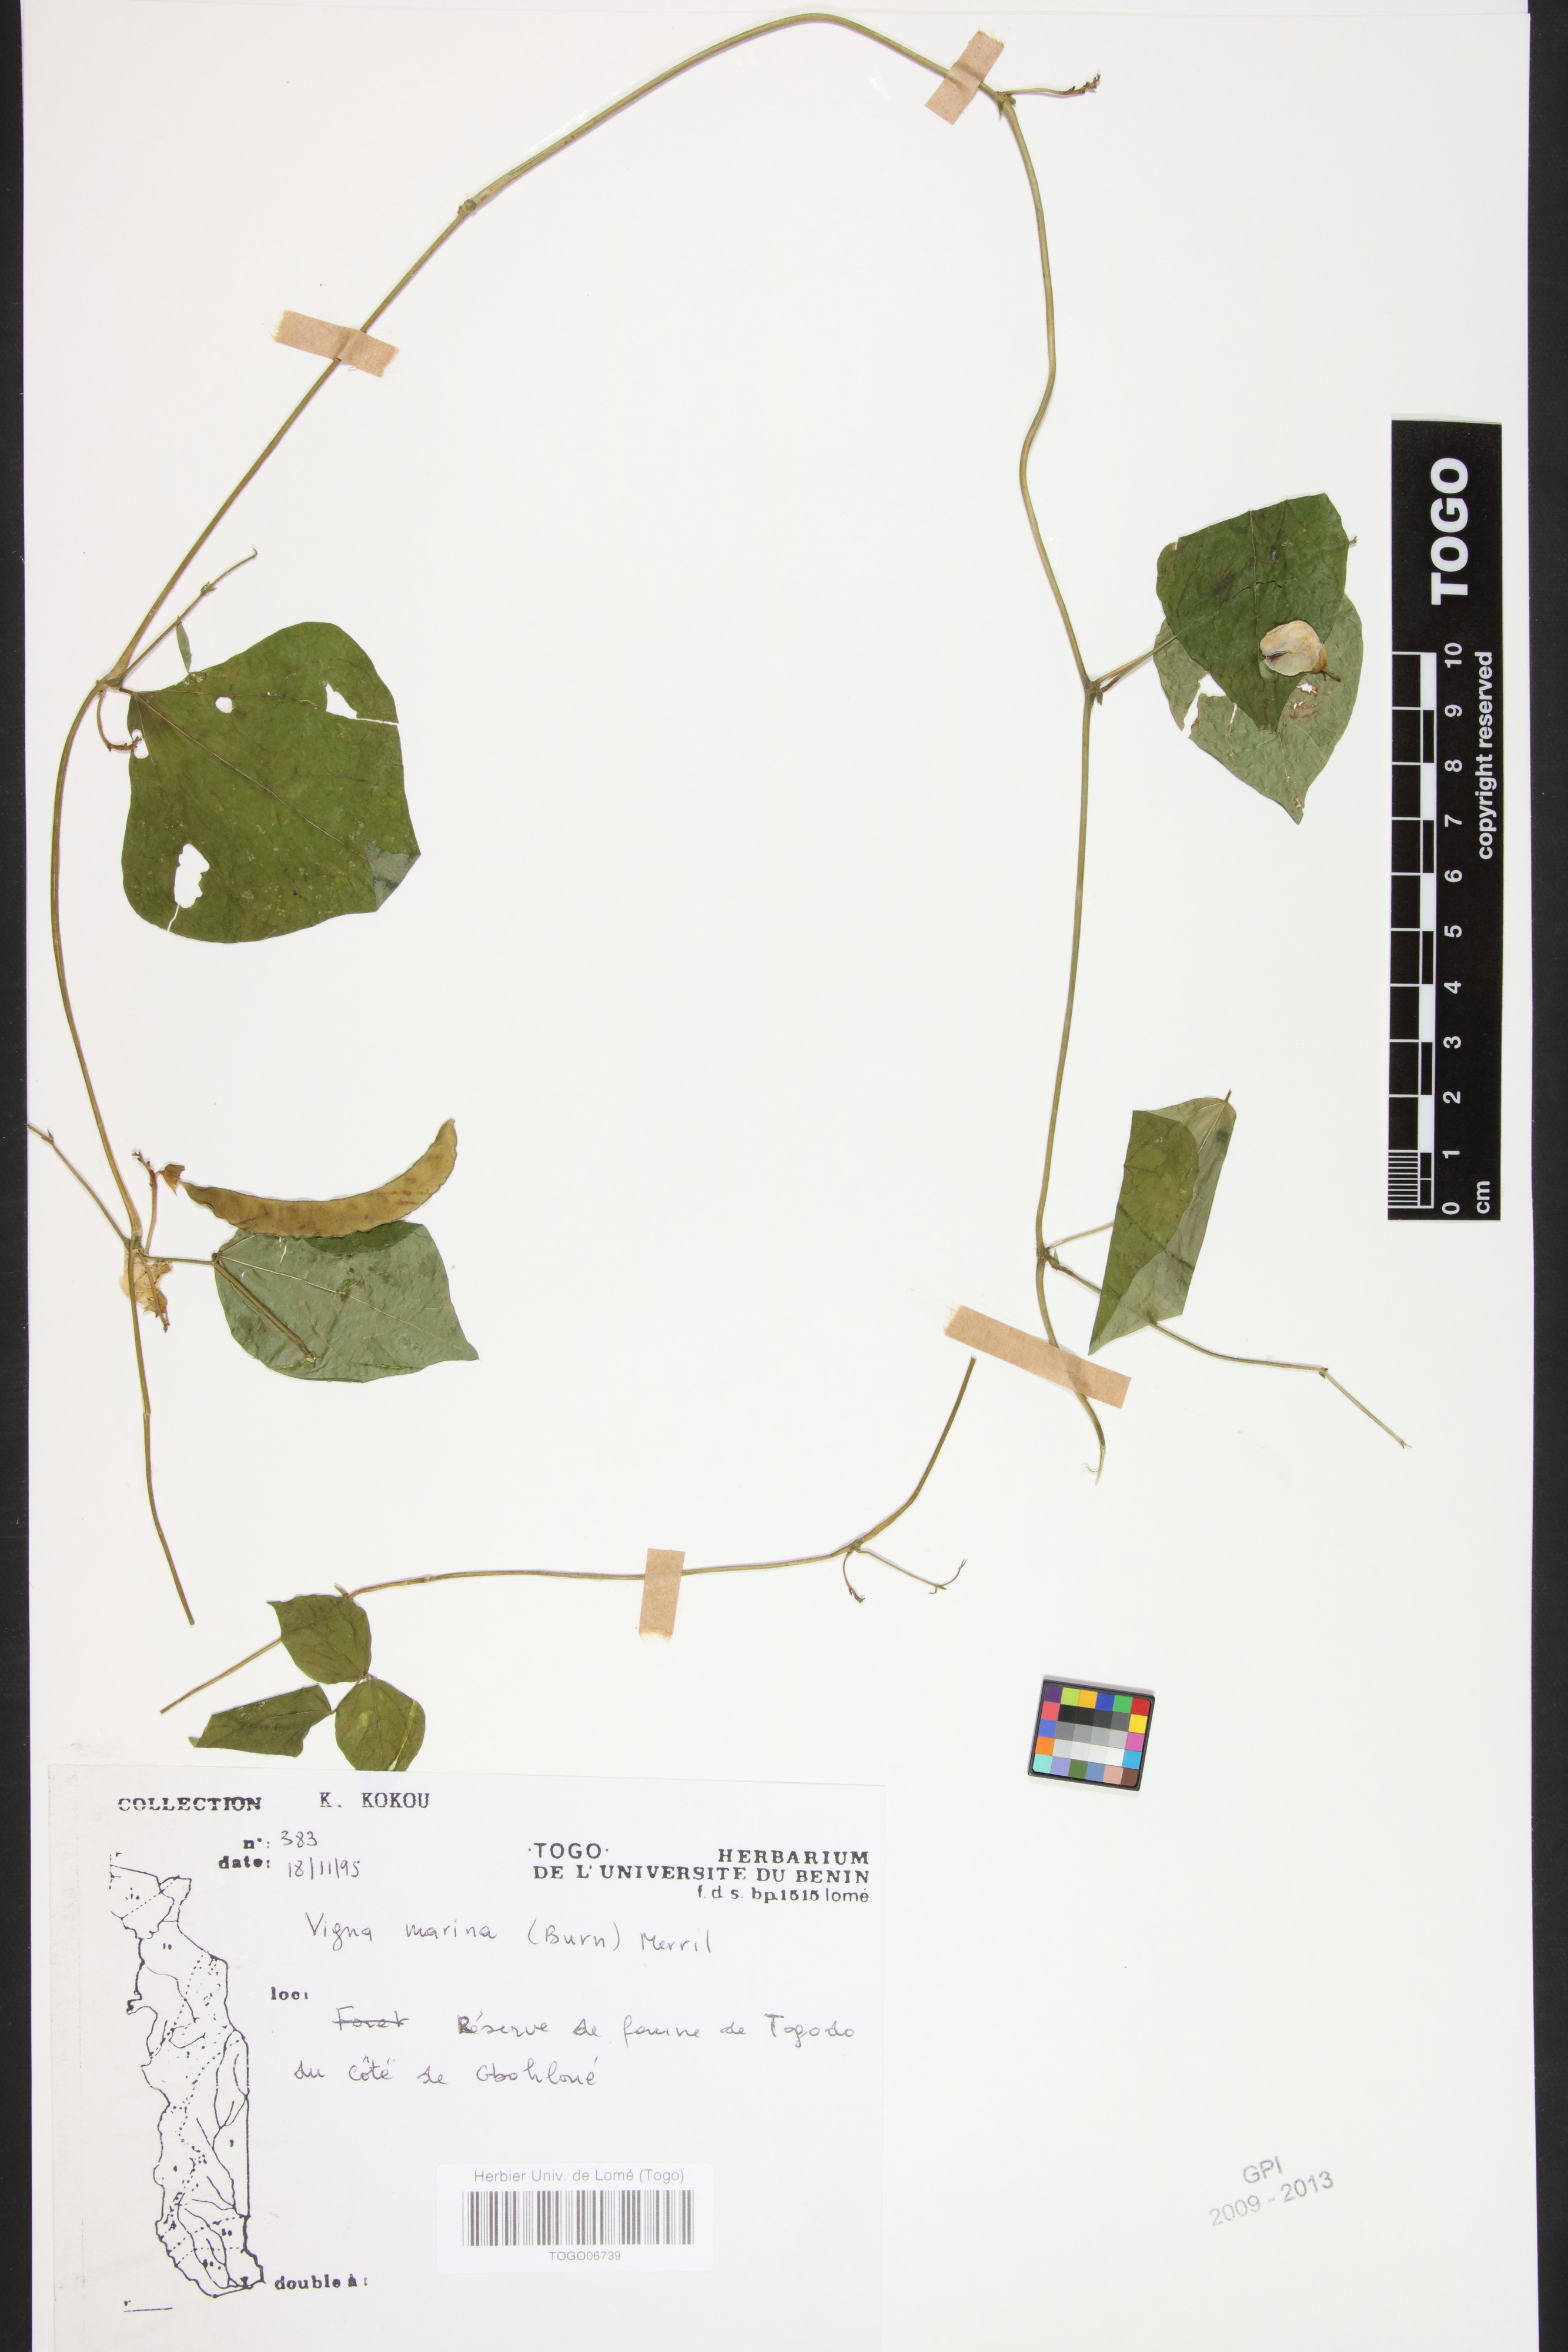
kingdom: Plantae
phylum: Tracheophyta
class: Magnoliopsida
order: Fabales
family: Fabaceae
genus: Vigna
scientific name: Vigna marina
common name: Dune-bean
